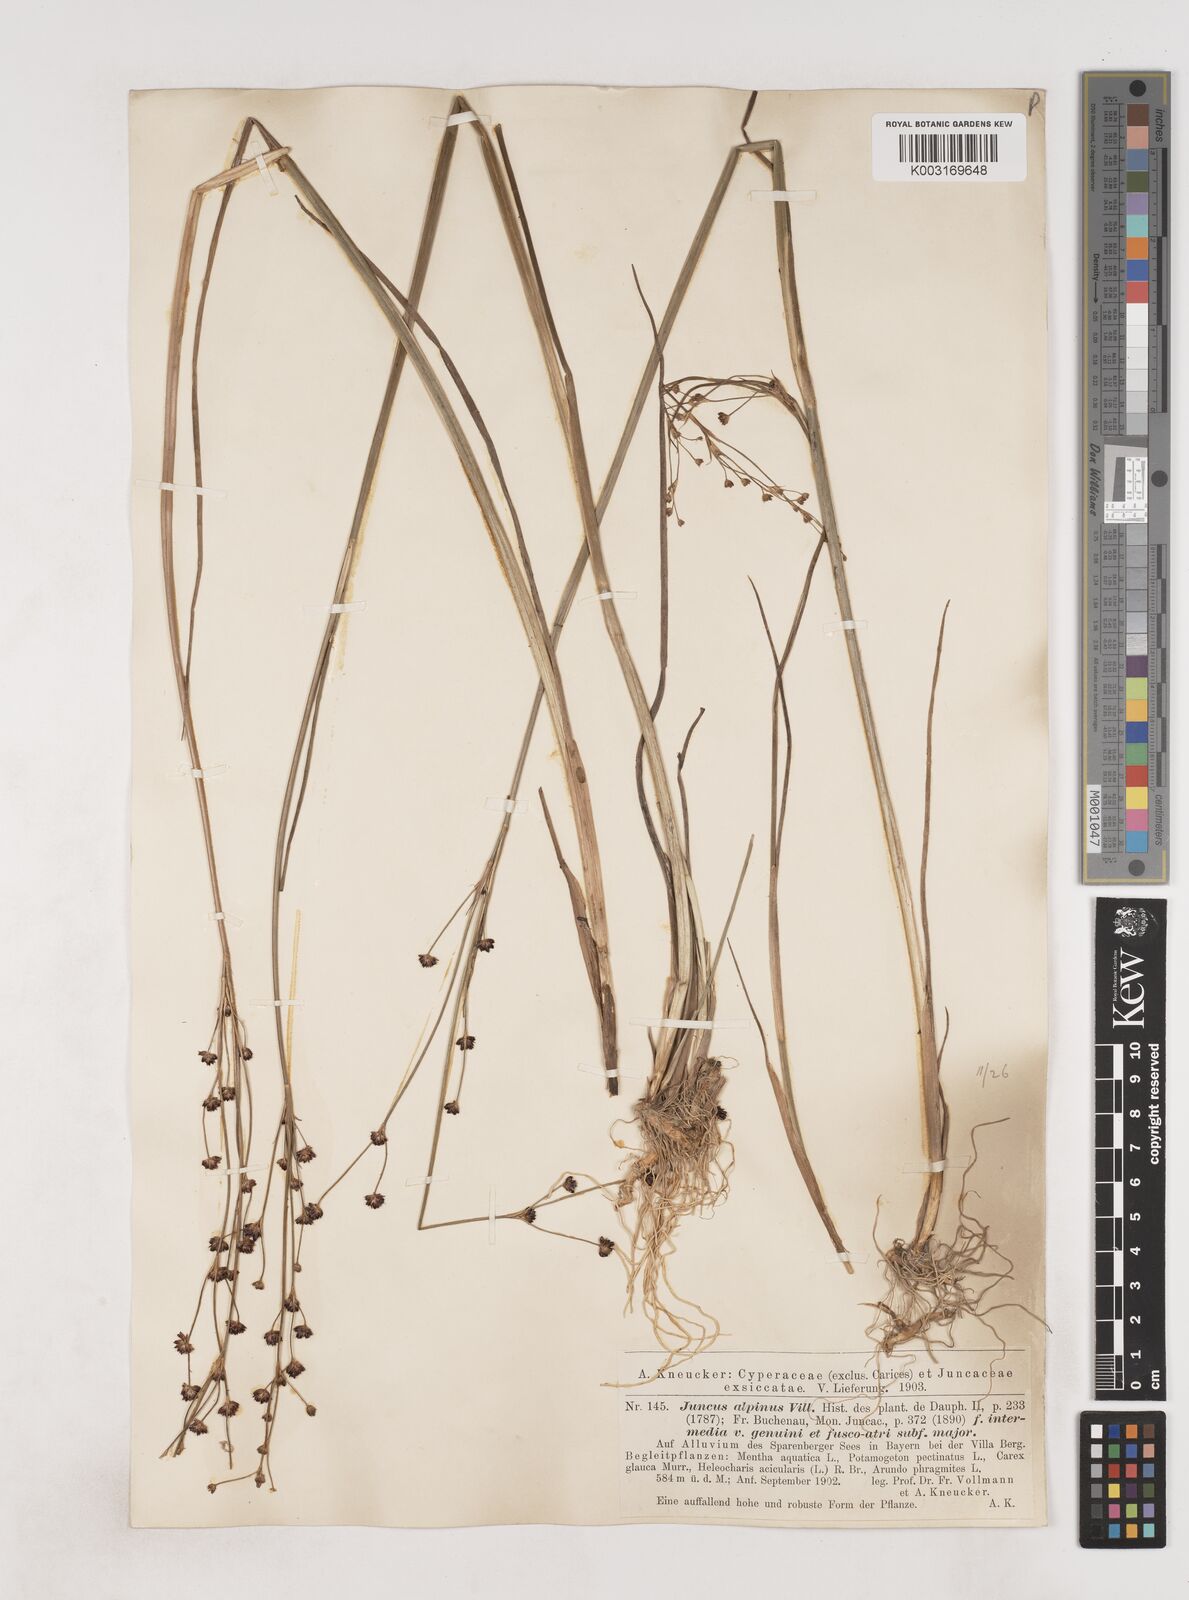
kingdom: Plantae
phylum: Tracheophyta
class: Liliopsida
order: Poales
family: Juncaceae
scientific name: Juncaceae
